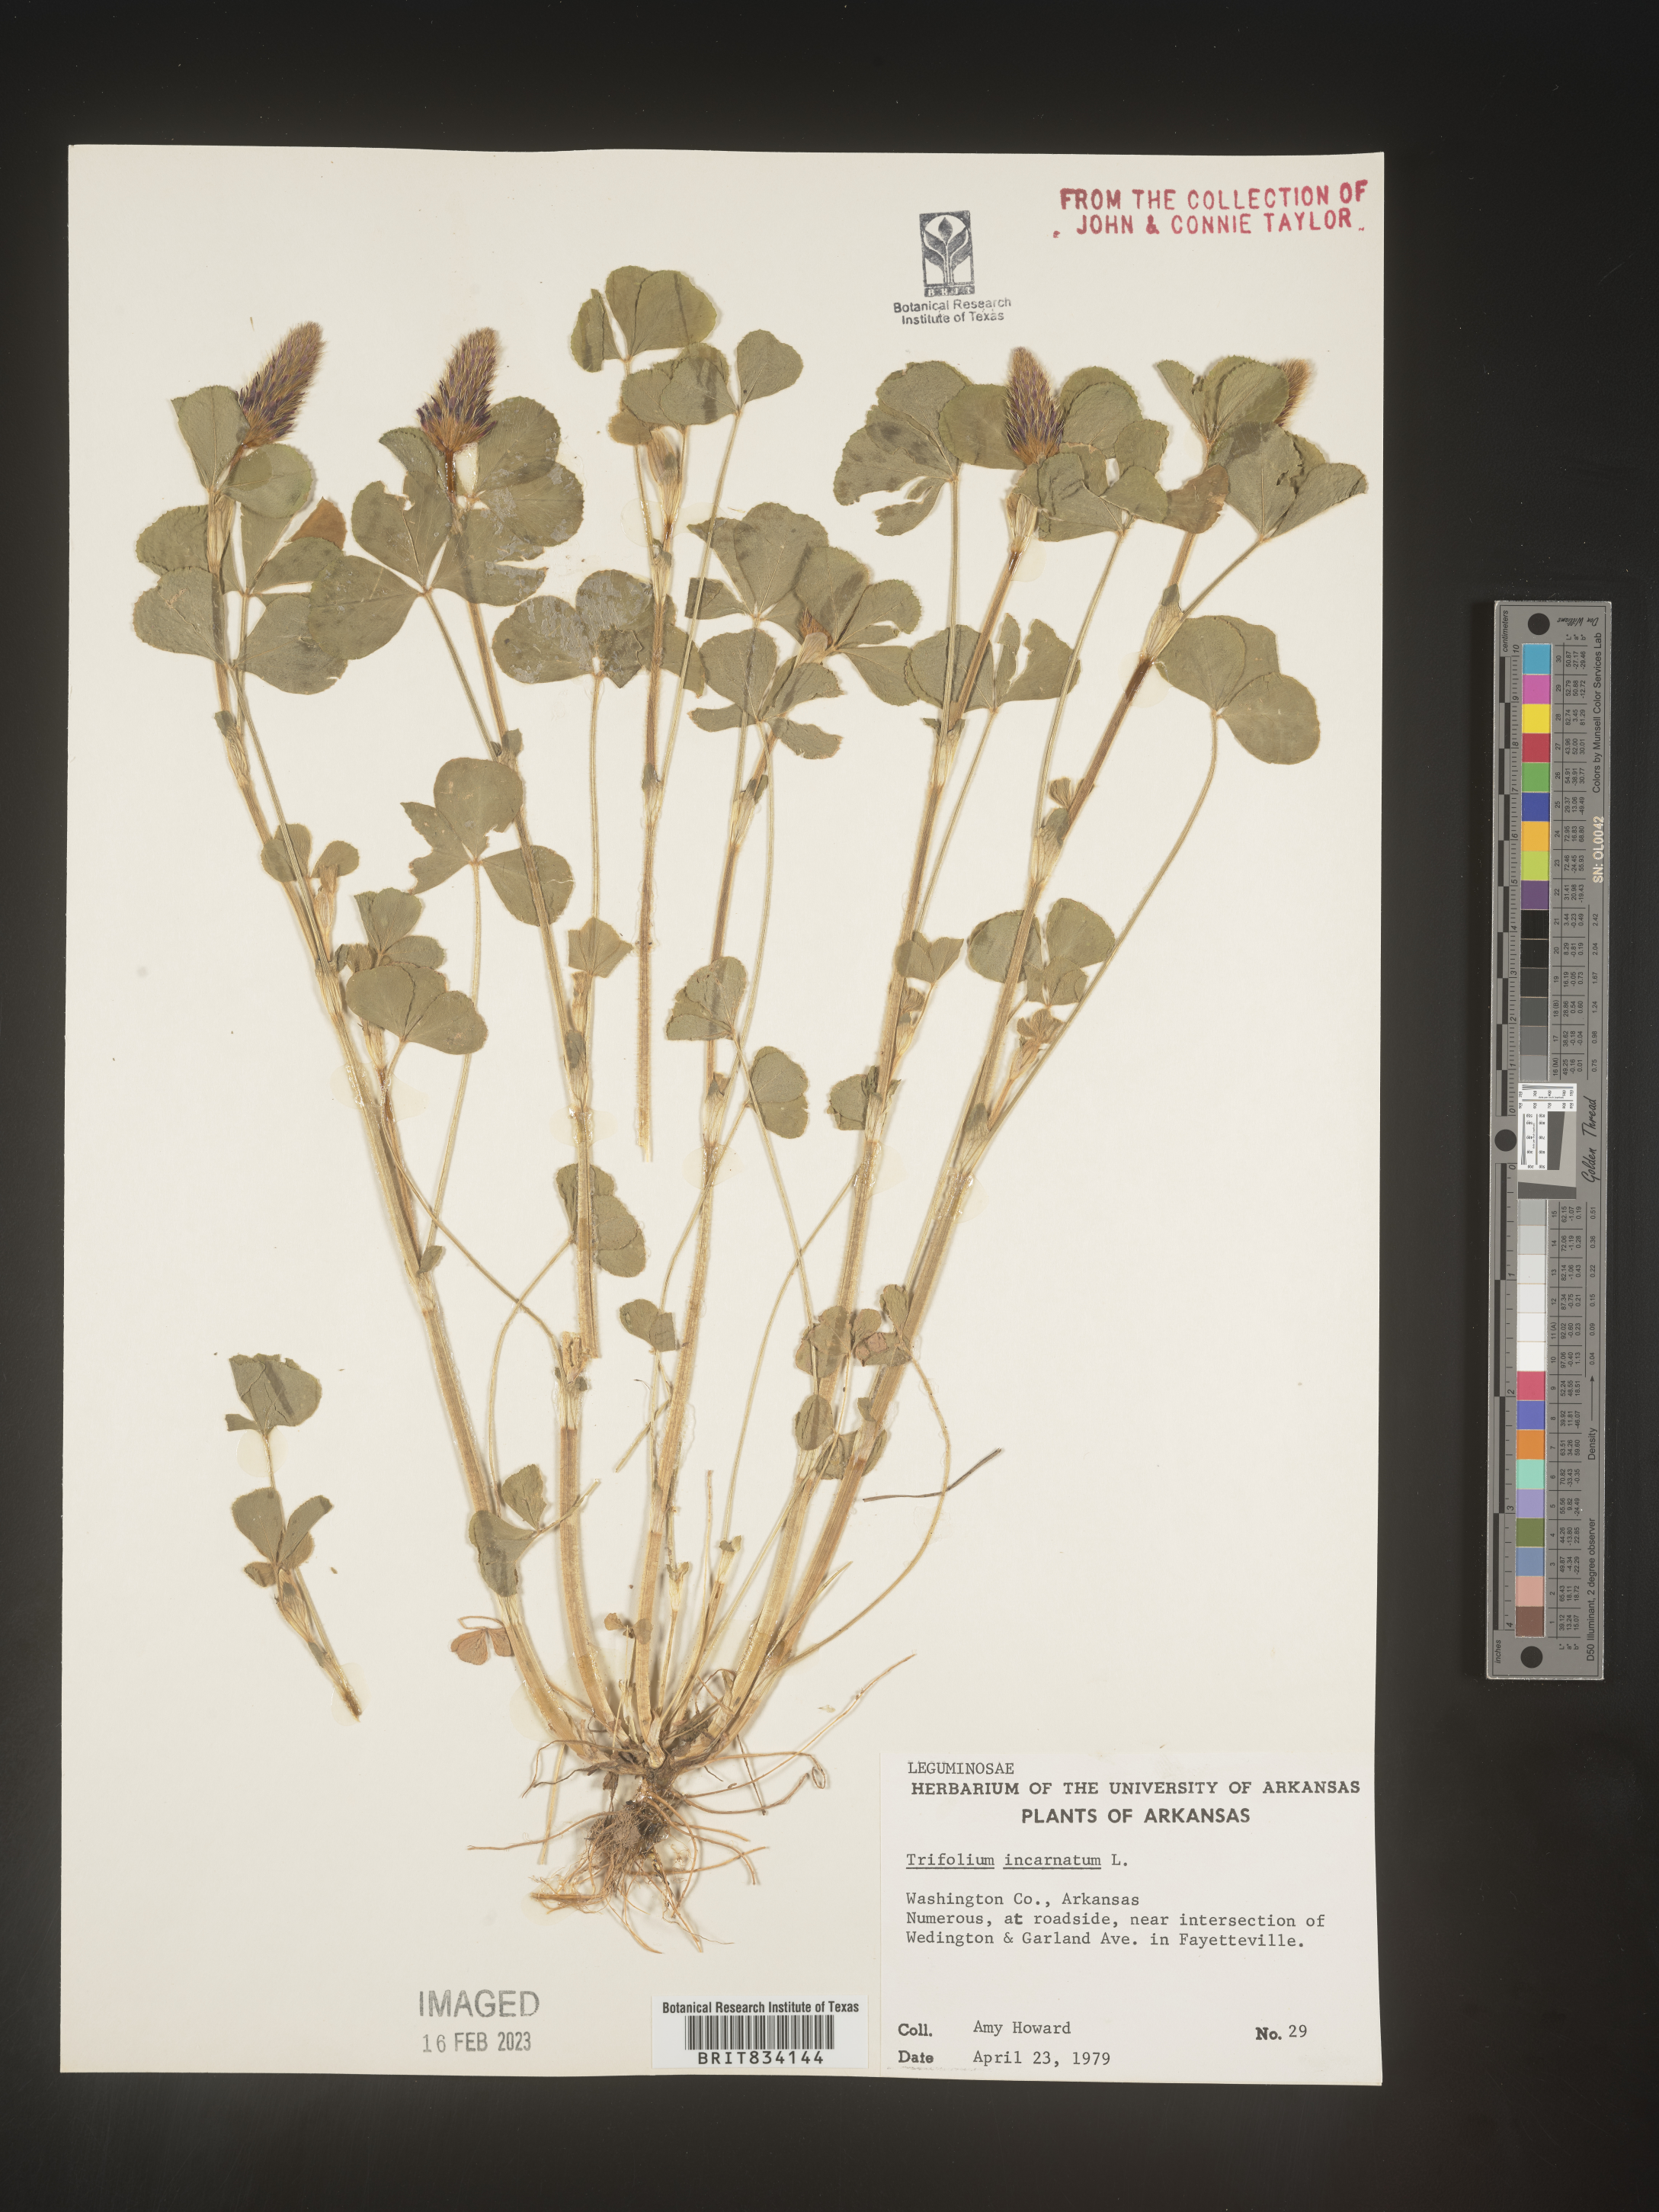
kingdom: Plantae
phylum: Tracheophyta
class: Magnoliopsida
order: Fabales
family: Fabaceae
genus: Trifolium
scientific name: Trifolium incarnatum
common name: Crimson clover
